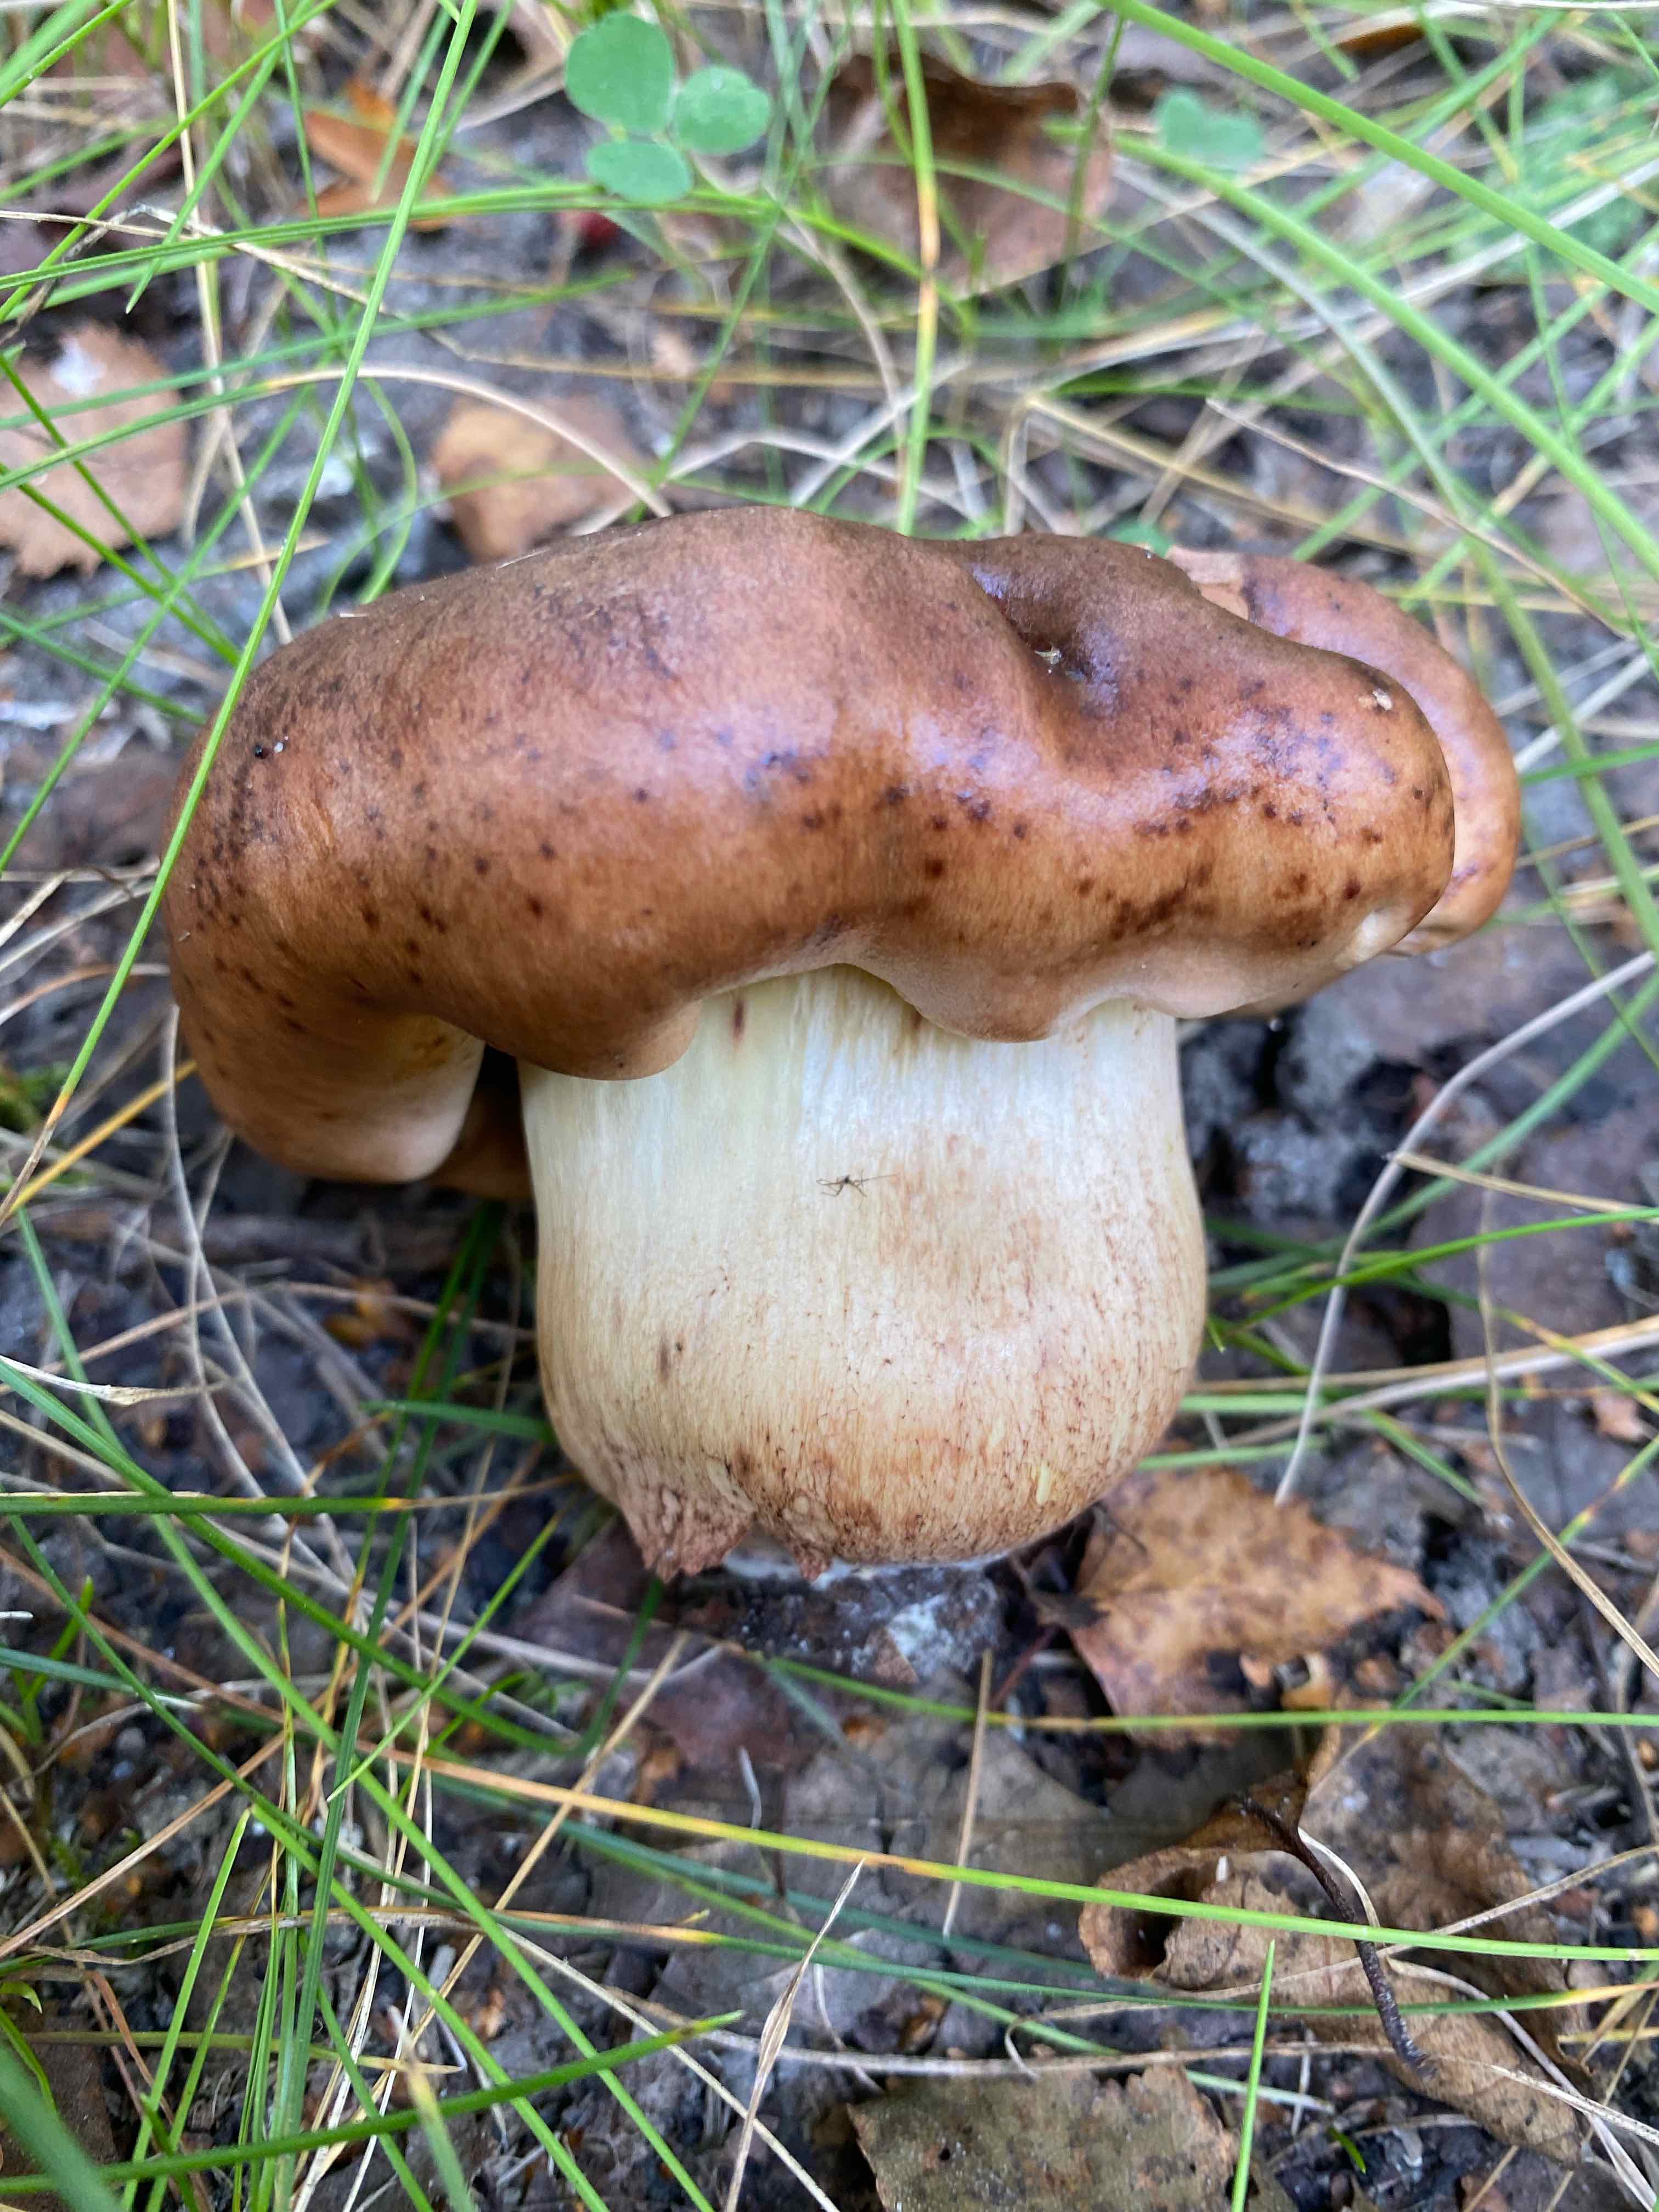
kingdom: Fungi
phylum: Basidiomycota
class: Agaricomycetes
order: Agaricales
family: Tricholomataceae
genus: Tricholoma
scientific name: Tricholoma fulvum
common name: birke-ridderhat
